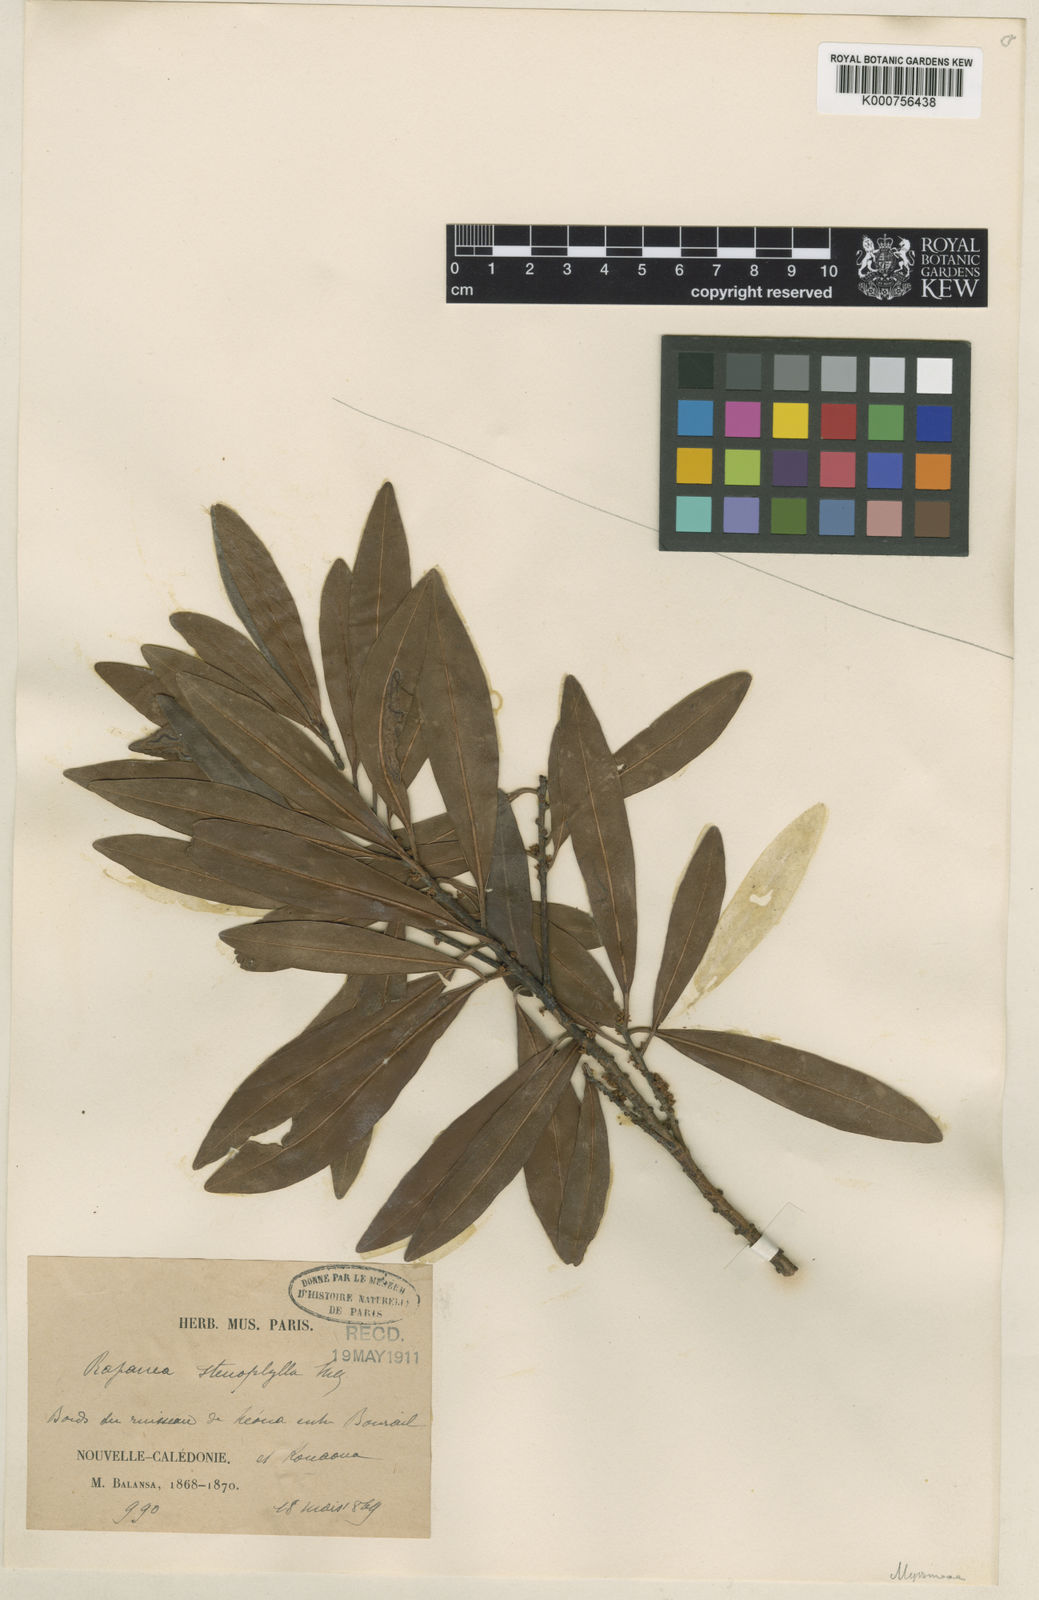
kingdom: Plantae
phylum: Tracheophyta
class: Magnoliopsida
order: Ericales
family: Primulaceae
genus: Myrsine
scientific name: Myrsine stenophylla
